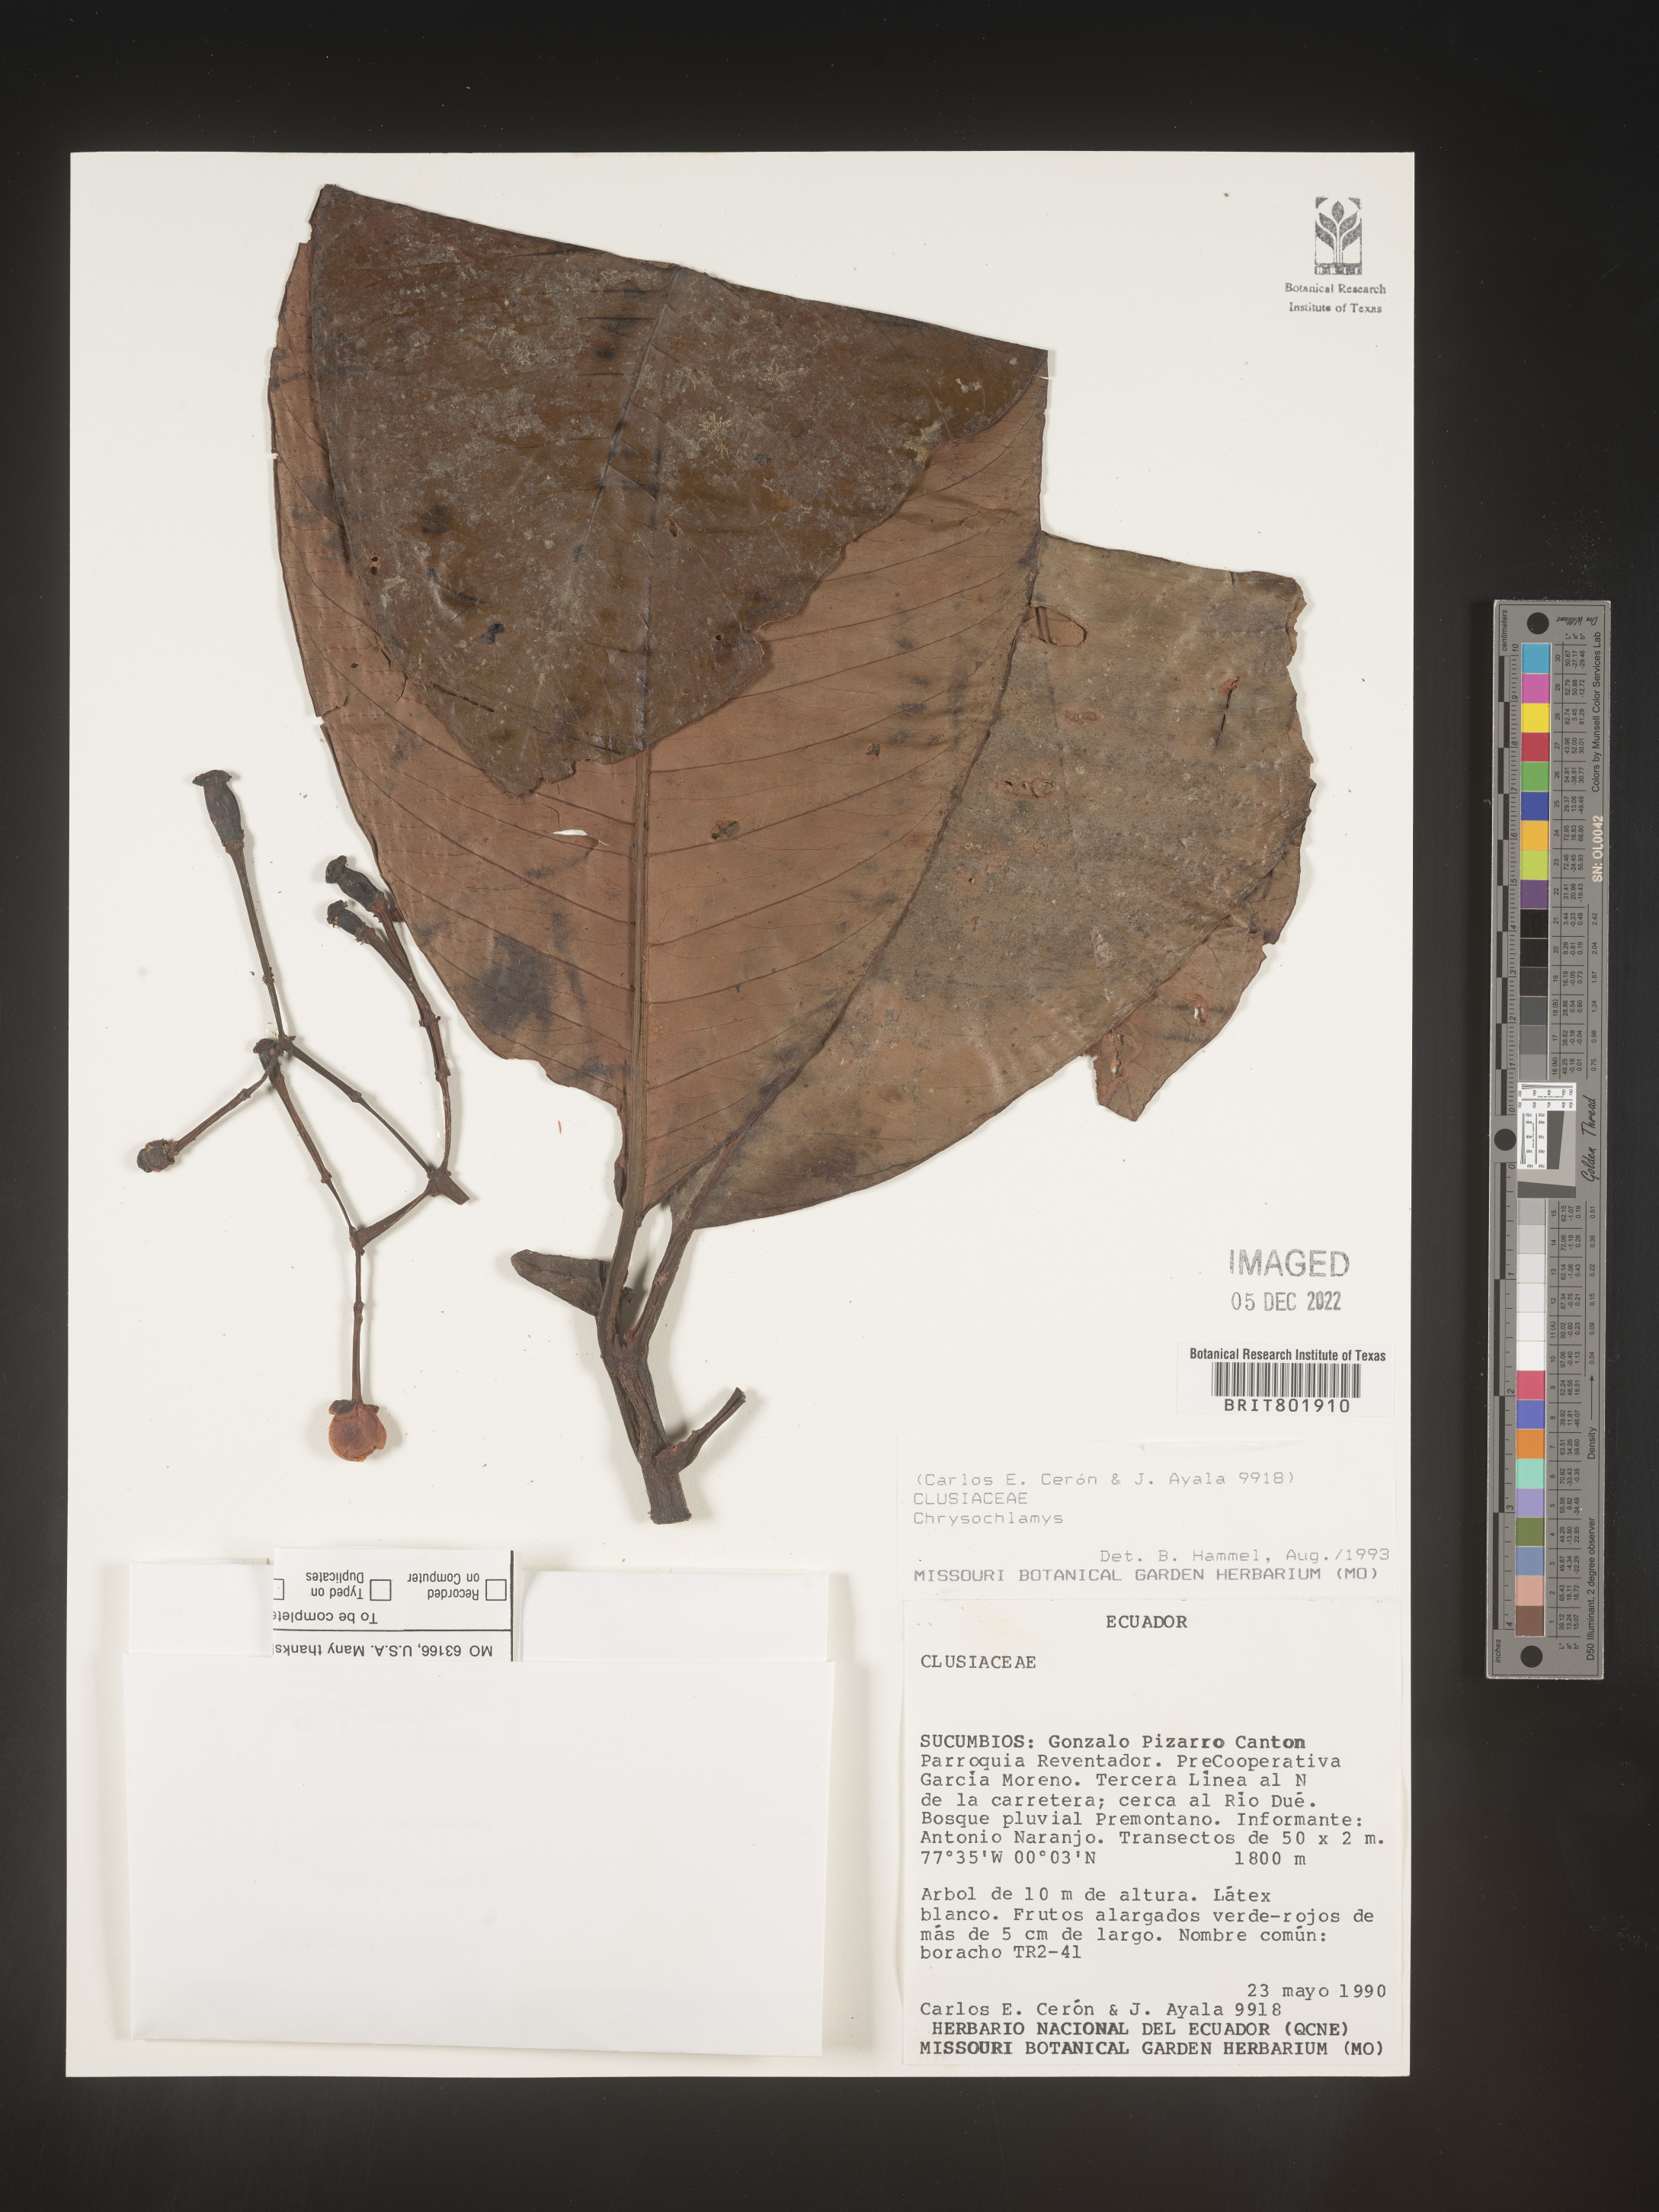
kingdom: Plantae
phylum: Tracheophyta
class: Magnoliopsida
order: Malpighiales
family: Clusiaceae
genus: Chrysochlamys
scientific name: Chrysochlamys
